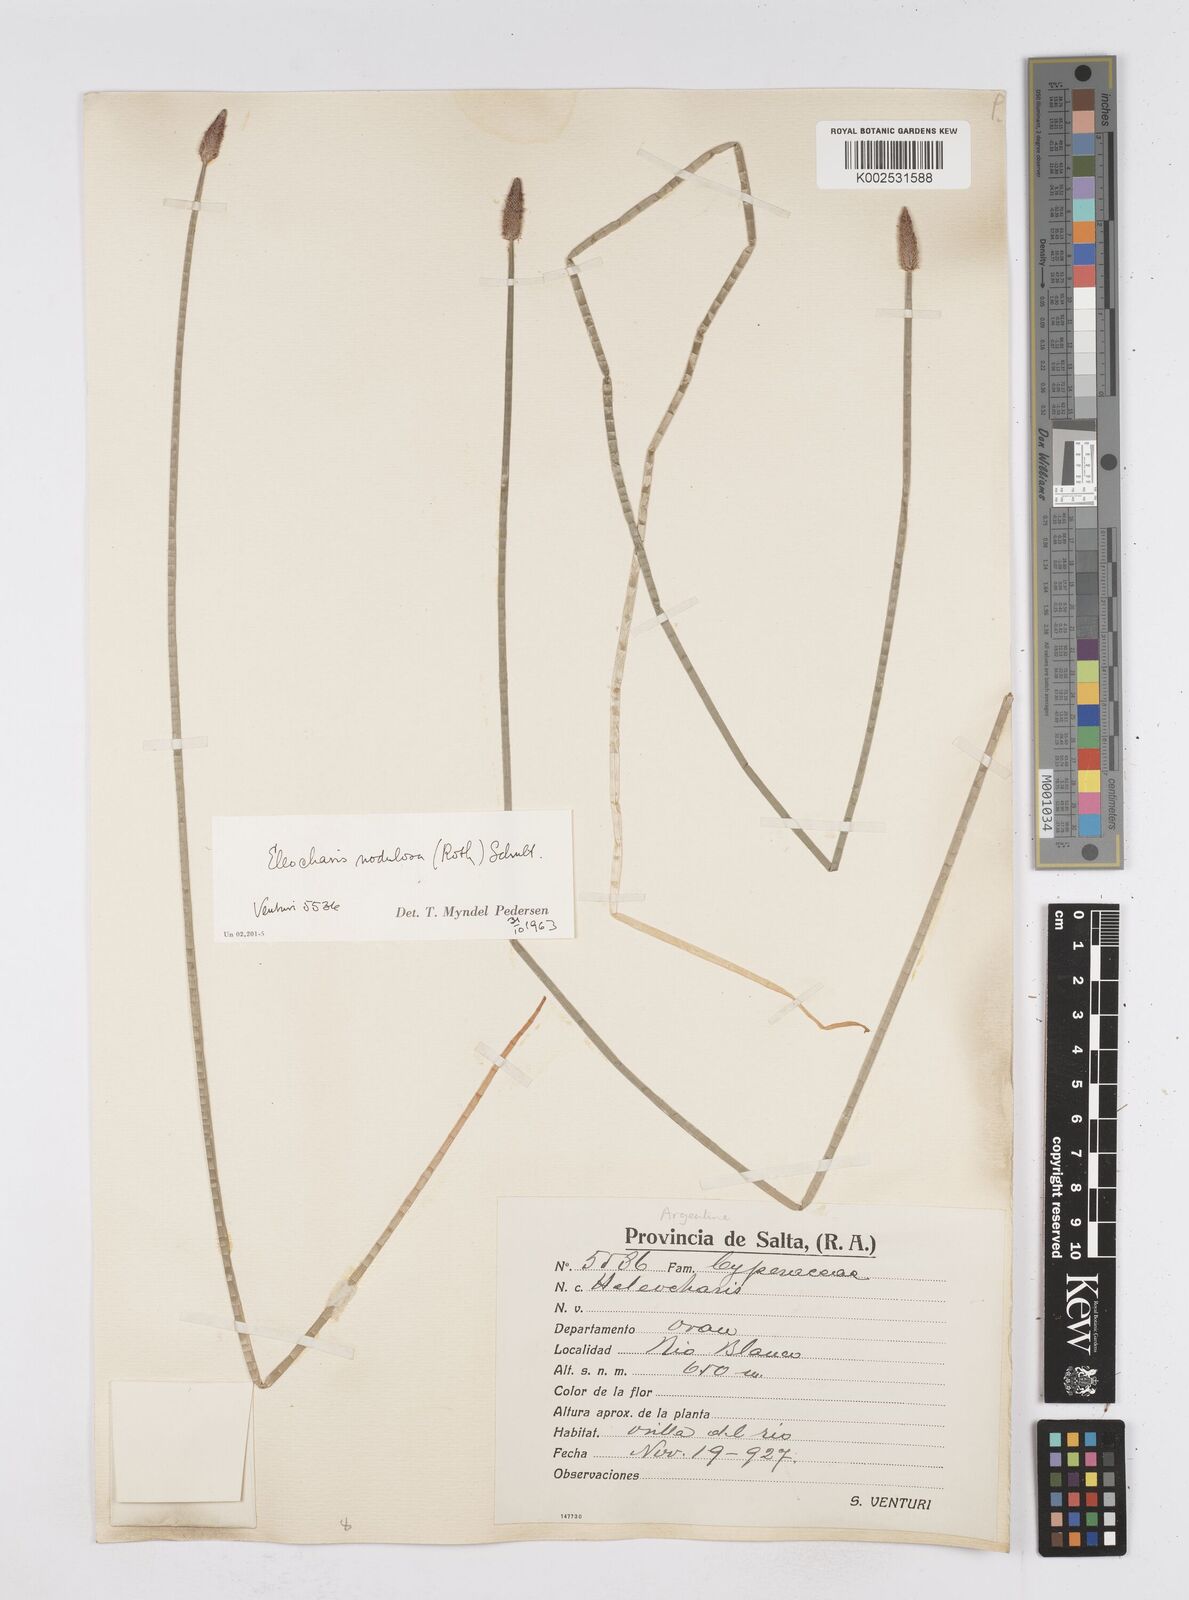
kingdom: Plantae
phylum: Tracheophyta
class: Liliopsida
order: Poales
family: Cyperaceae
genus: Eleocharis
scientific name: Eleocharis montana
